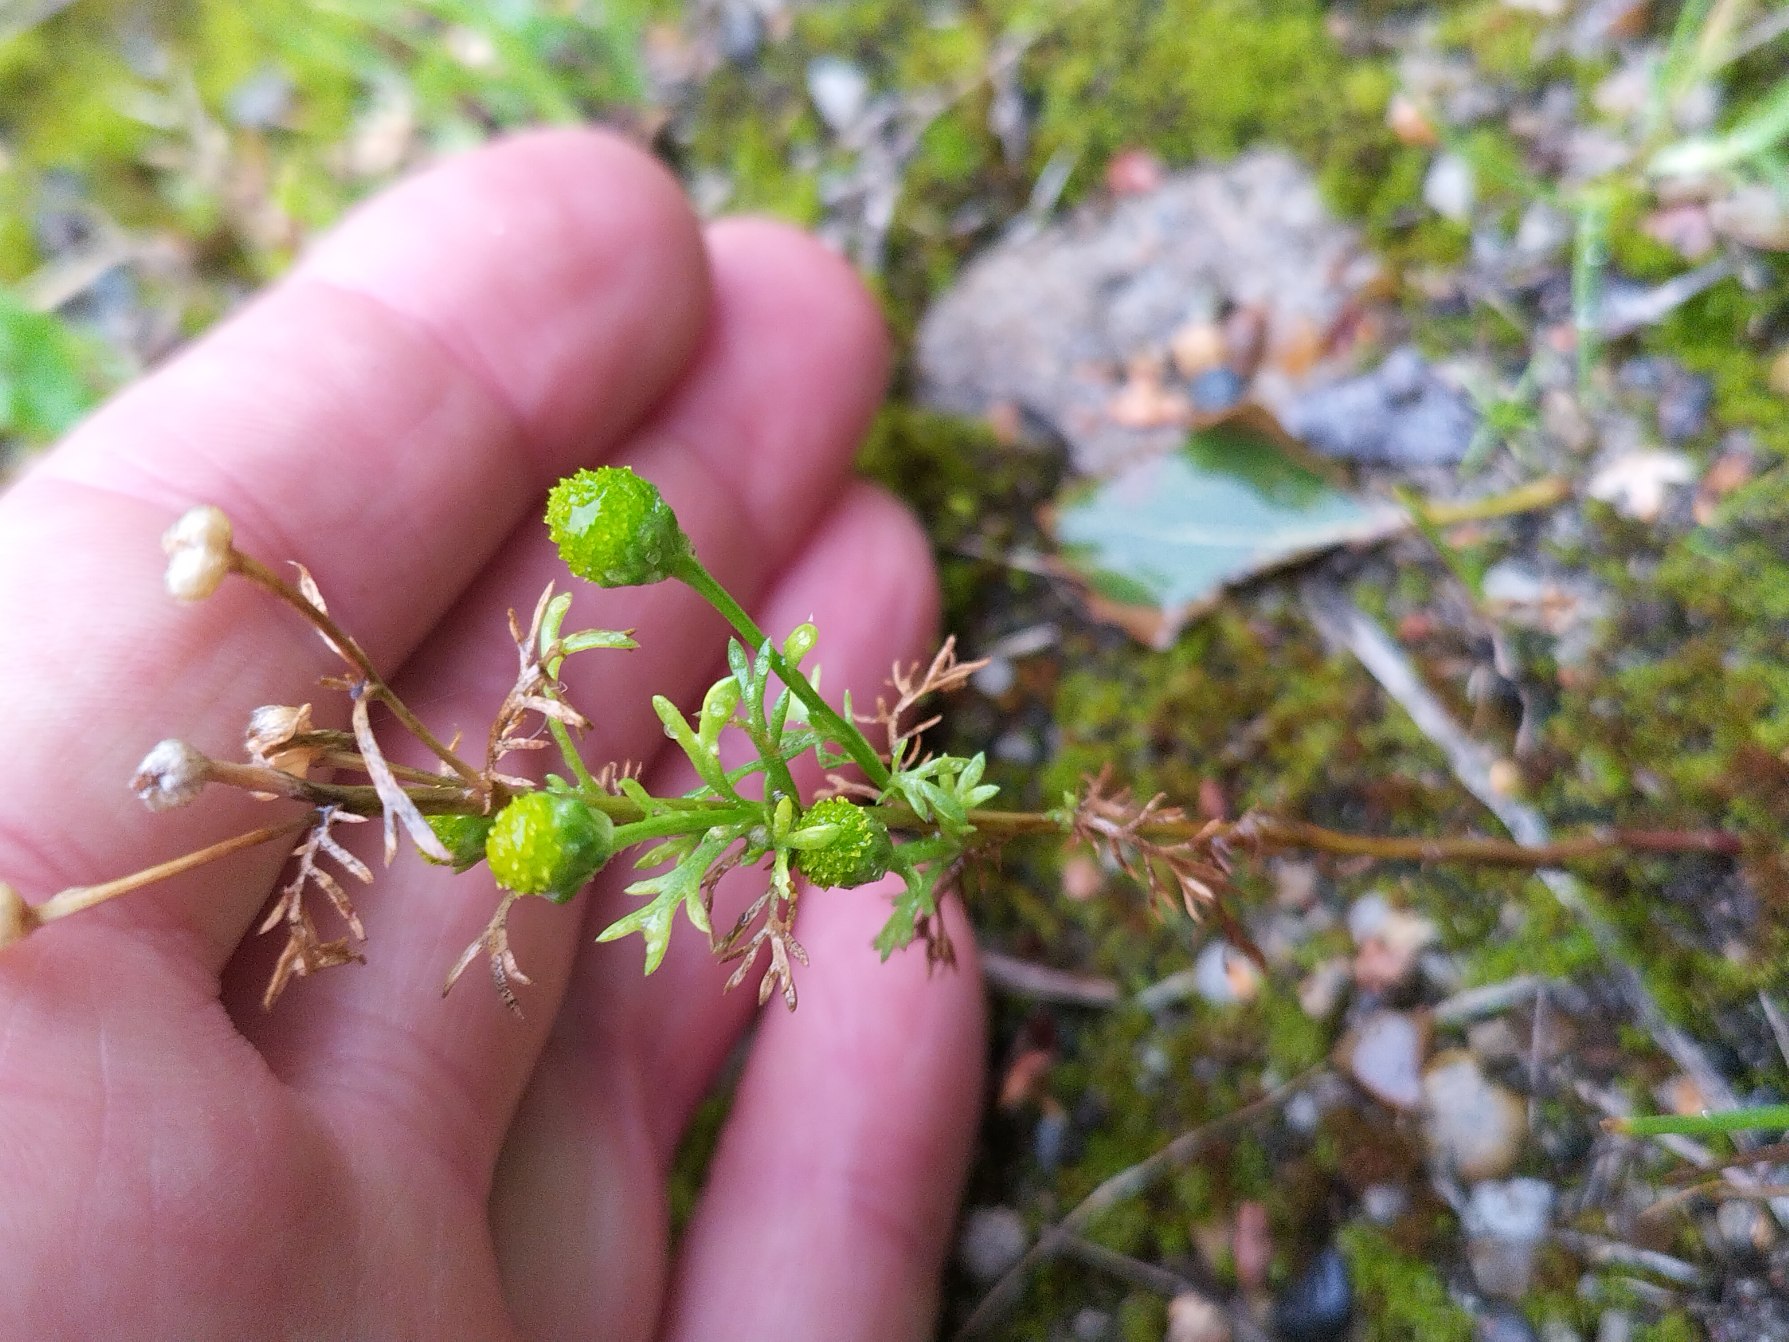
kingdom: Plantae
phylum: Tracheophyta
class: Magnoliopsida
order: Asterales
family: Asteraceae
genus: Matricaria
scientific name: Matricaria discoidea
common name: Skive-kamille
